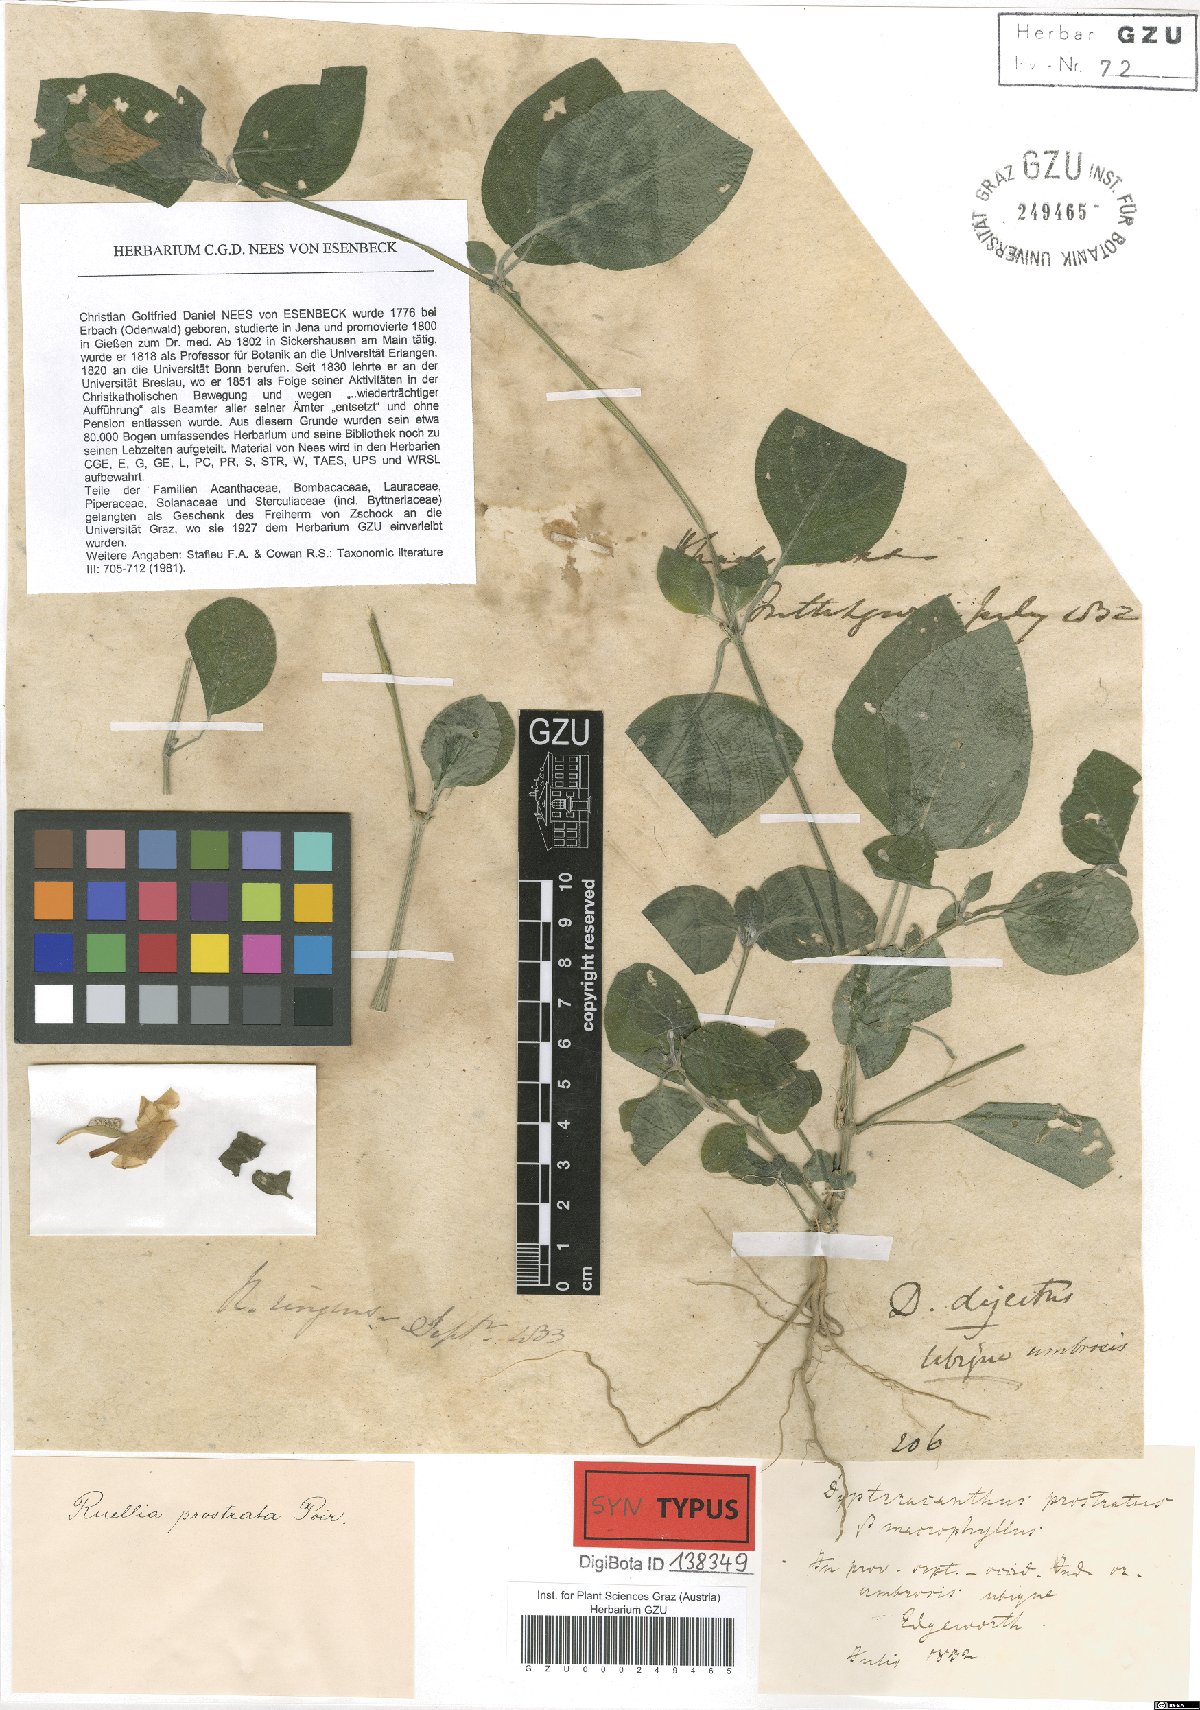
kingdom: Plantae
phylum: Tracheophyta
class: Magnoliopsida
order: Lamiales
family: Acanthaceae
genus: Ruellia
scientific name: Ruellia prostrata
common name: Prostrate wild petunia
